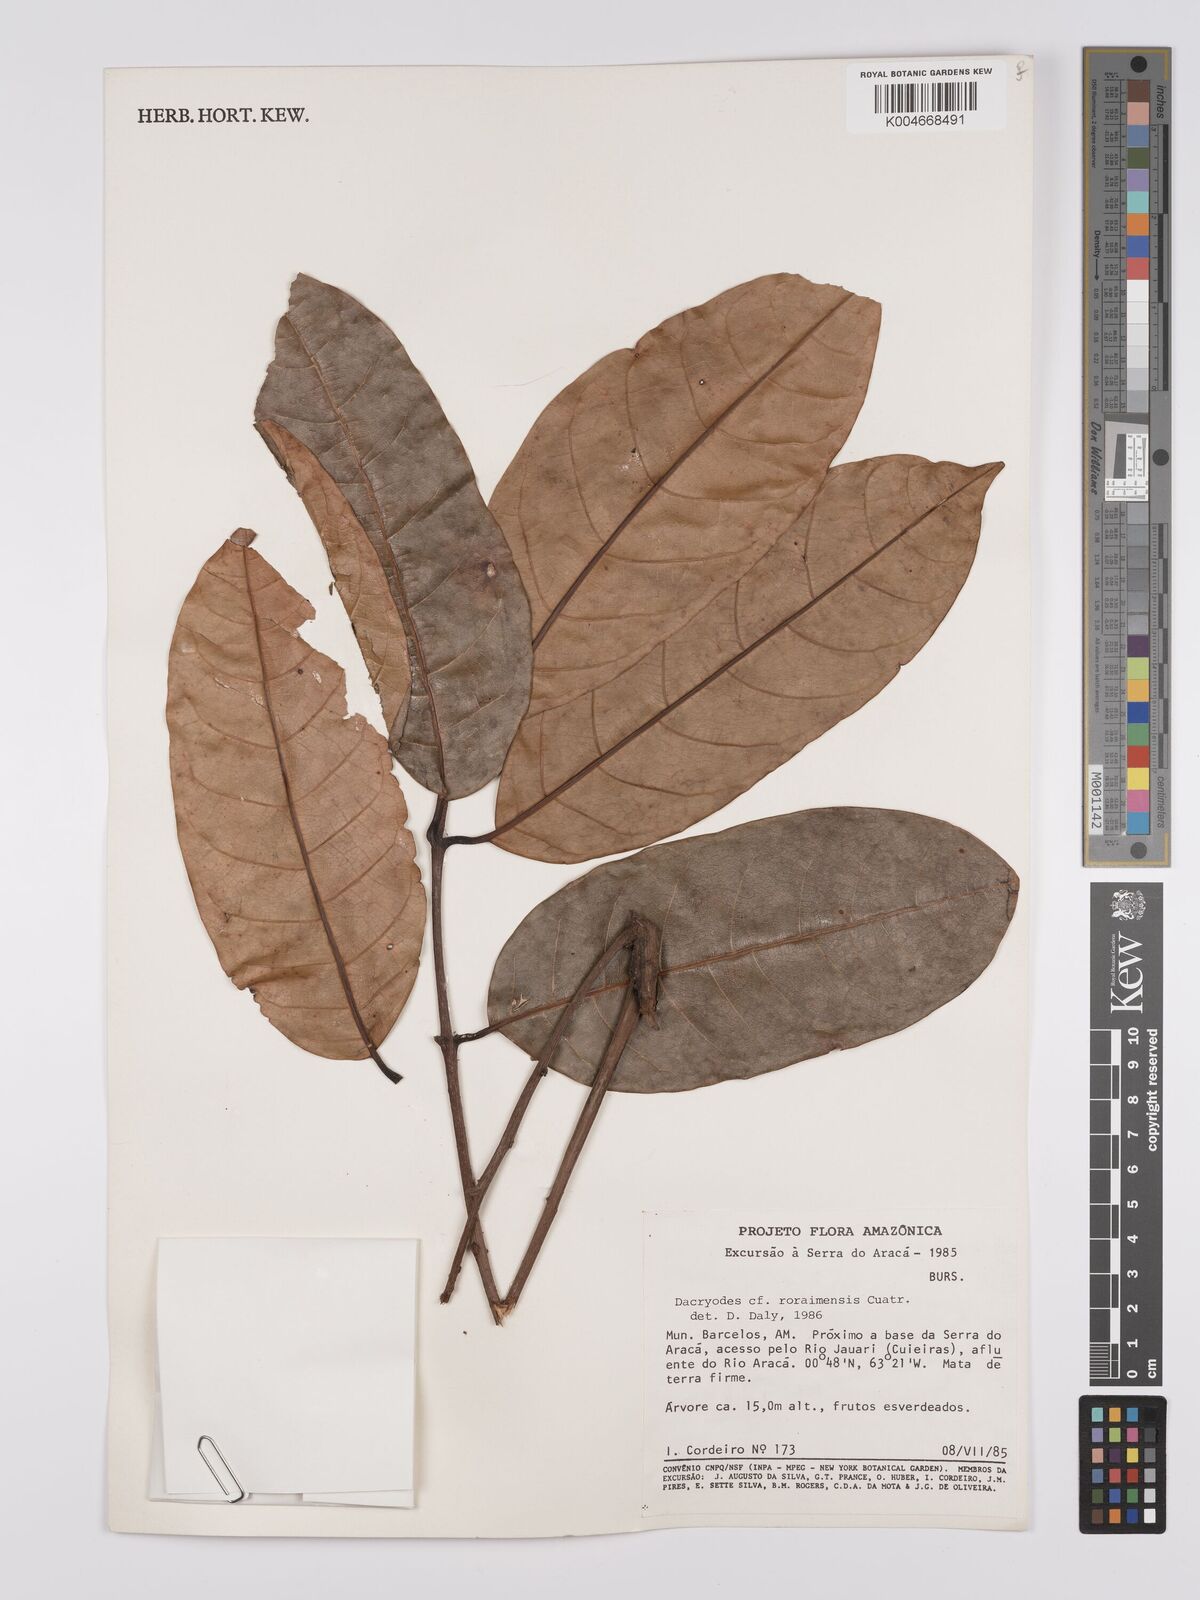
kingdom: Plantae
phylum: Tracheophyta
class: Magnoliopsida
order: Sapindales
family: Burseraceae
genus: Dacryodes
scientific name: Dacryodes roraimensis
